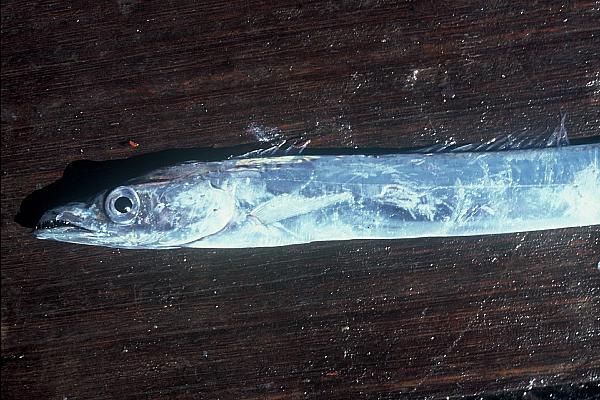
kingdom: Animalia
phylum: Chordata
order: Perciformes
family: Trichiuridae
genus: Lepidopus
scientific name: Lepidopus caudatus
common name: Silver scabbardfish
